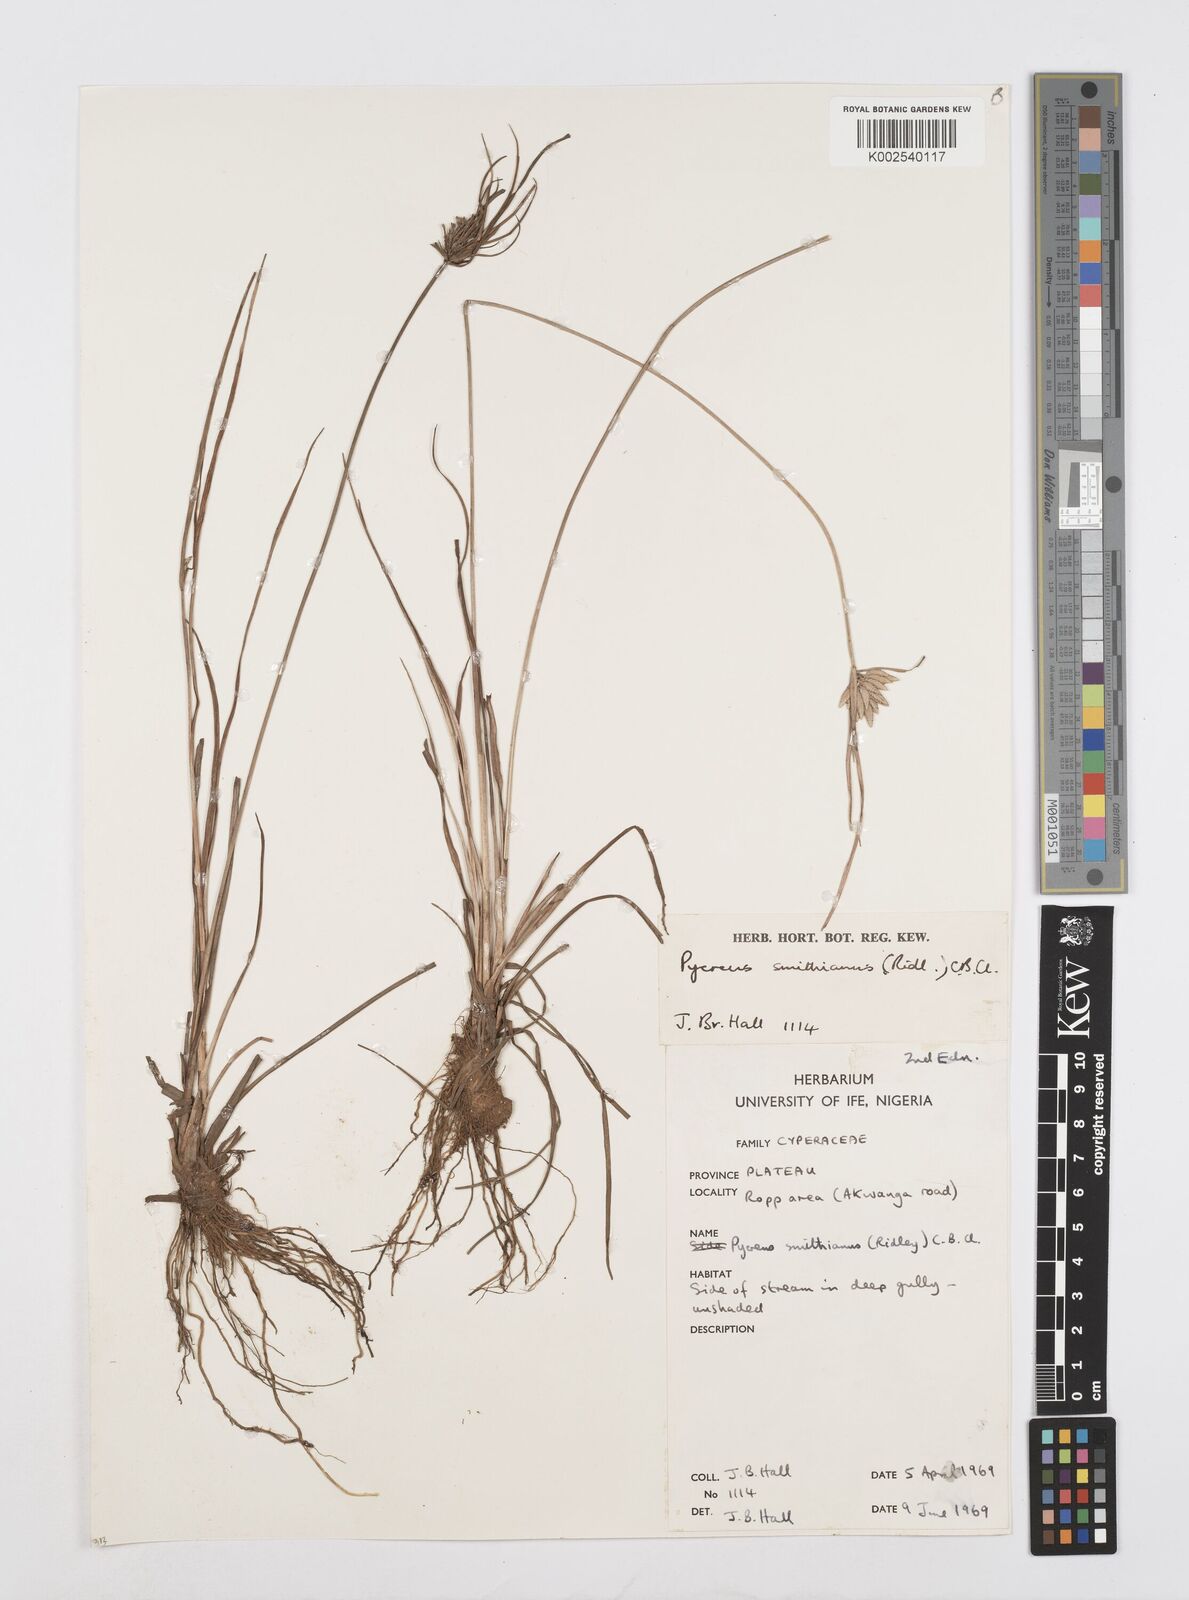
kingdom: Plantae
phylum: Tracheophyta
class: Liliopsida
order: Poales
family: Cyperaceae
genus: Cyperus
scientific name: Cyperus smithianus
